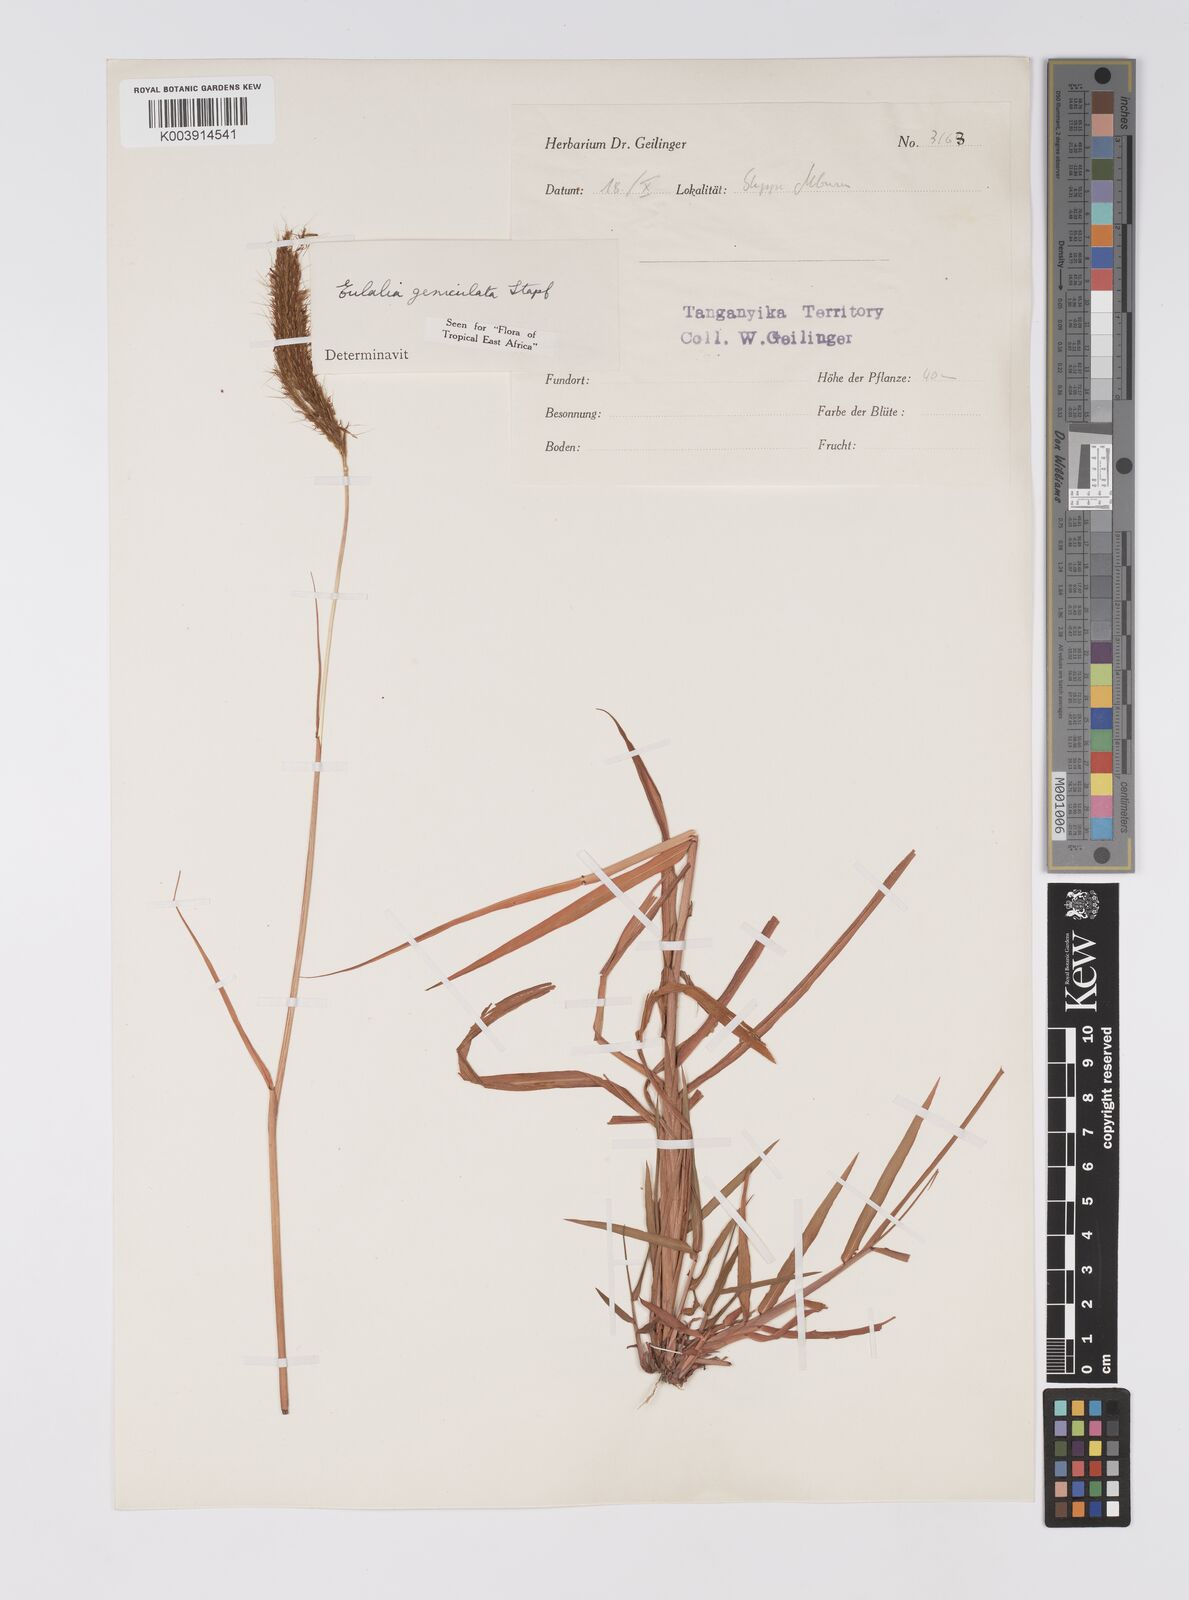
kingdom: Plantae
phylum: Tracheophyta
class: Liliopsida
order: Poales
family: Poaceae
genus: Eulalia
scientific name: Eulalia aurea
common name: Silky browntop
